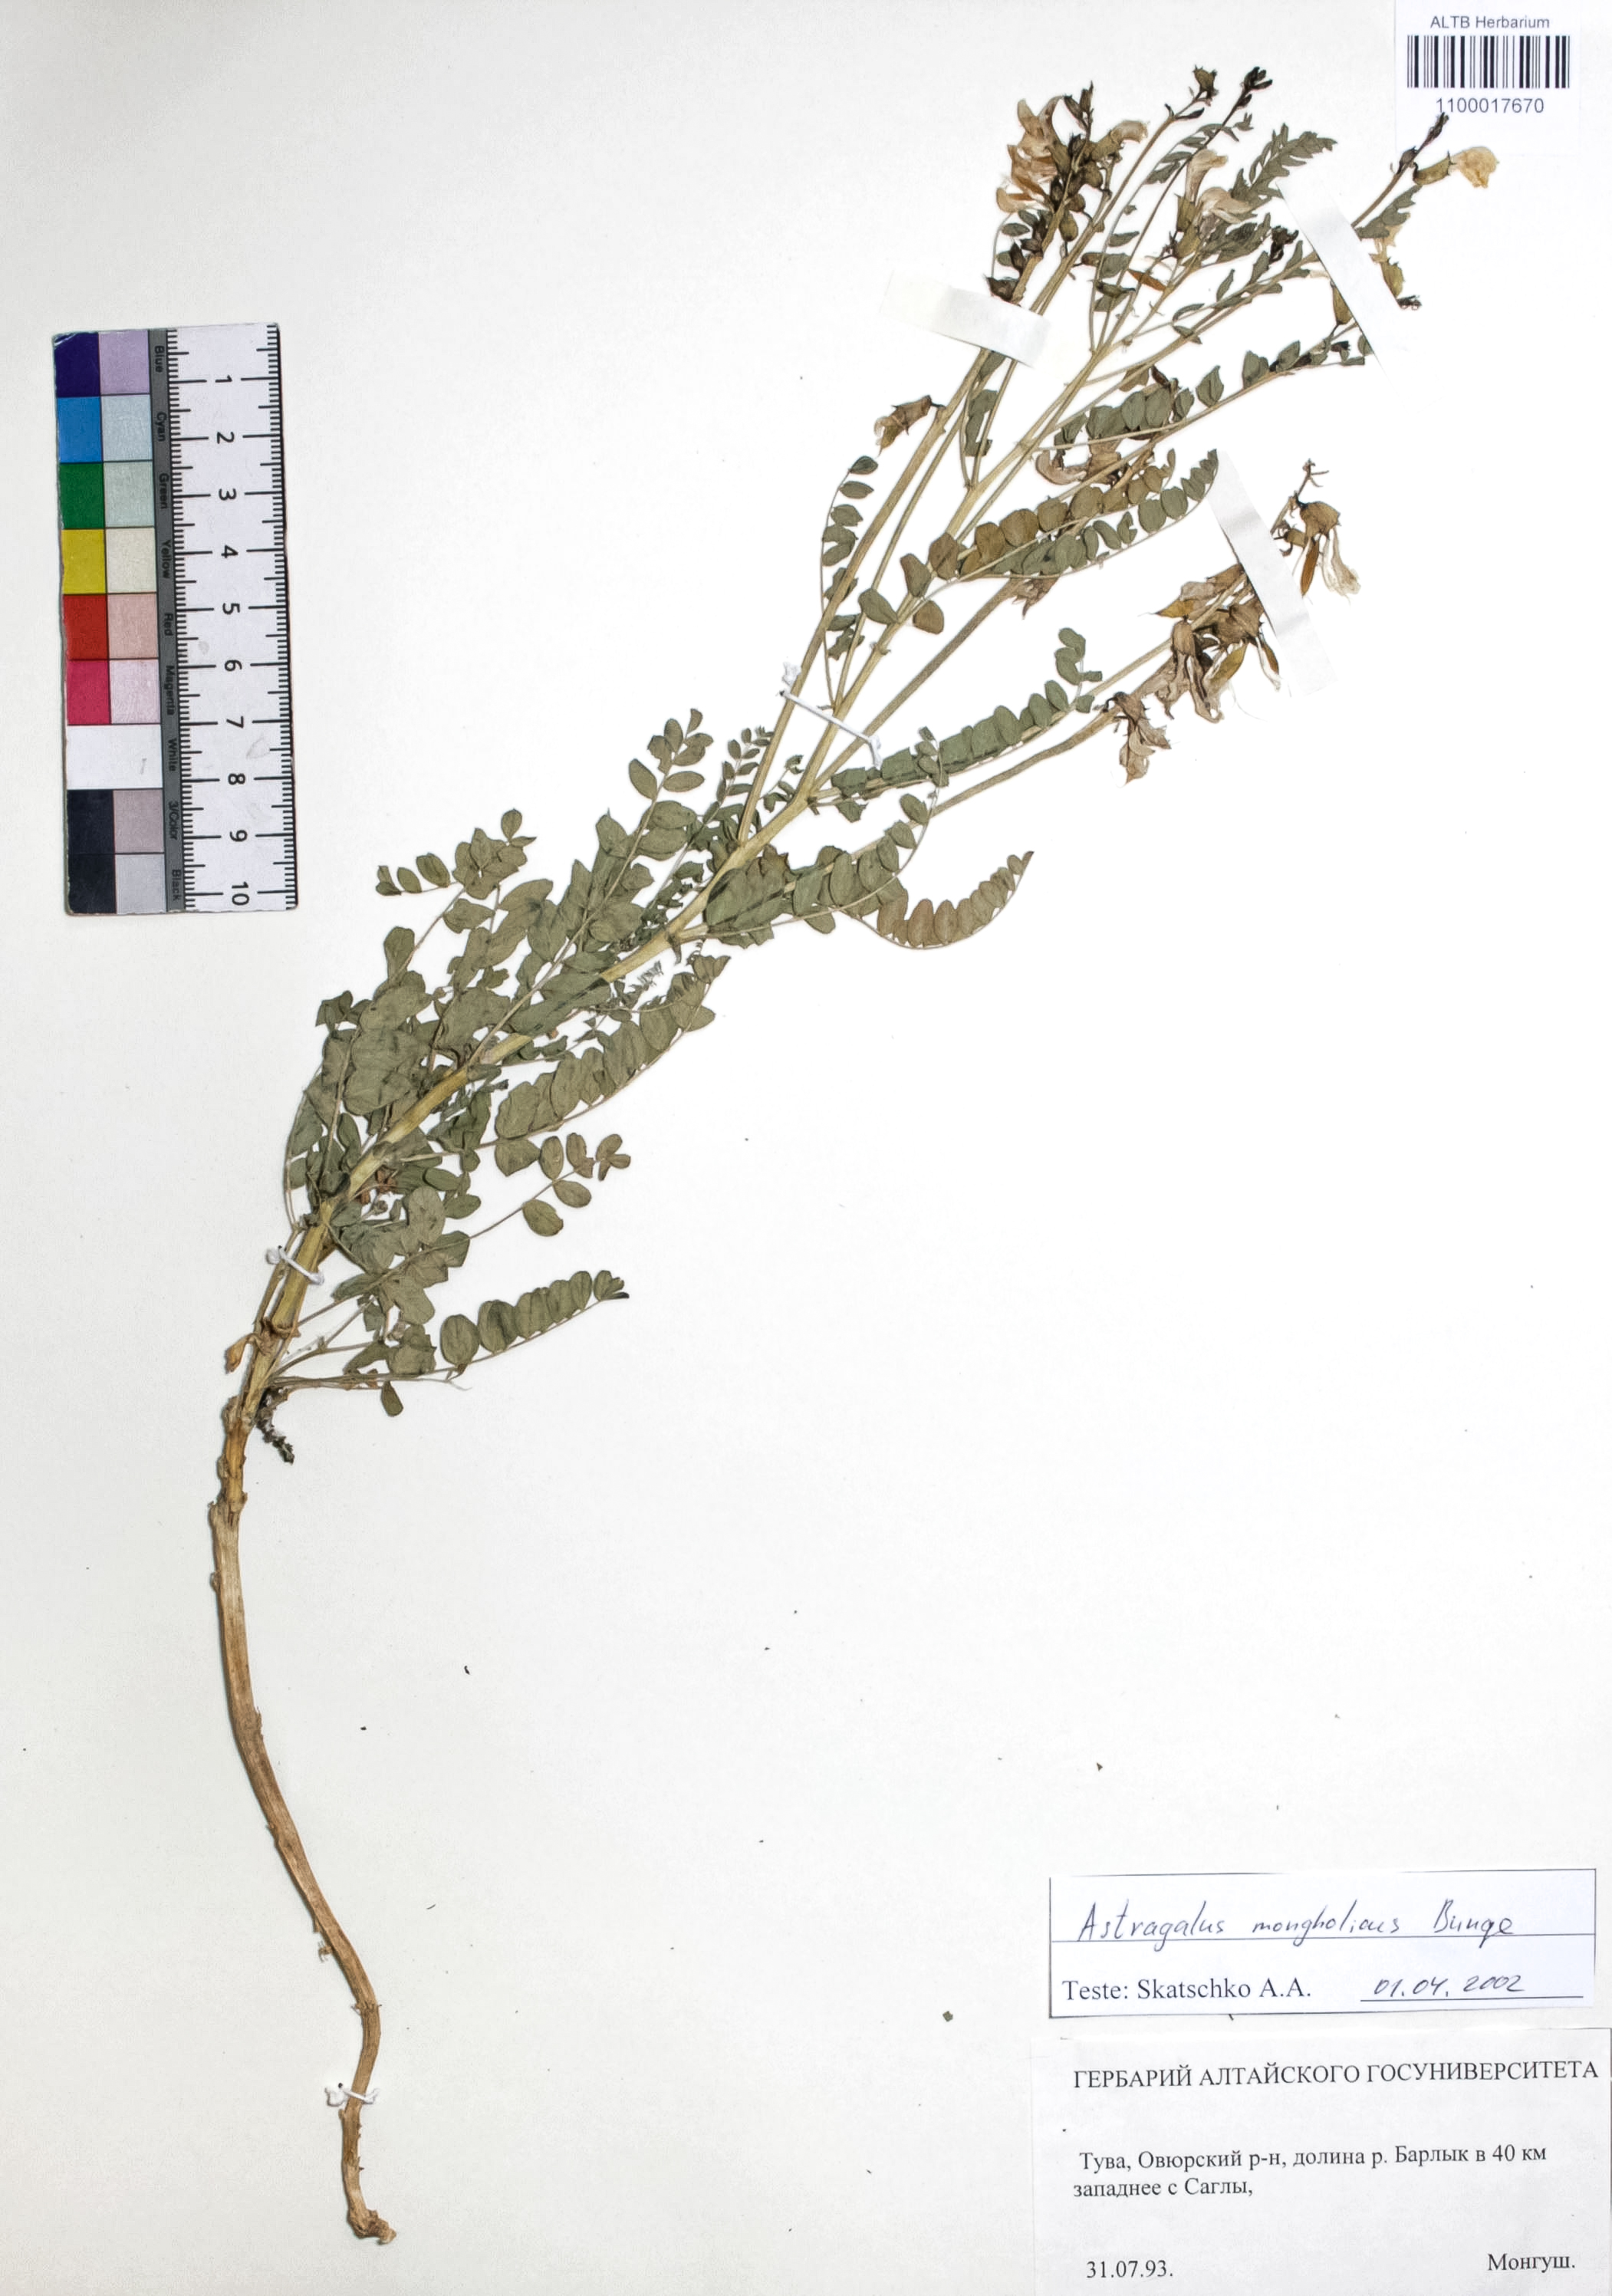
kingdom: Plantae
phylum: Tracheophyta
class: Magnoliopsida
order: Fabales
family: Fabaceae
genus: Astragalus
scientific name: Astragalus mongolicus
